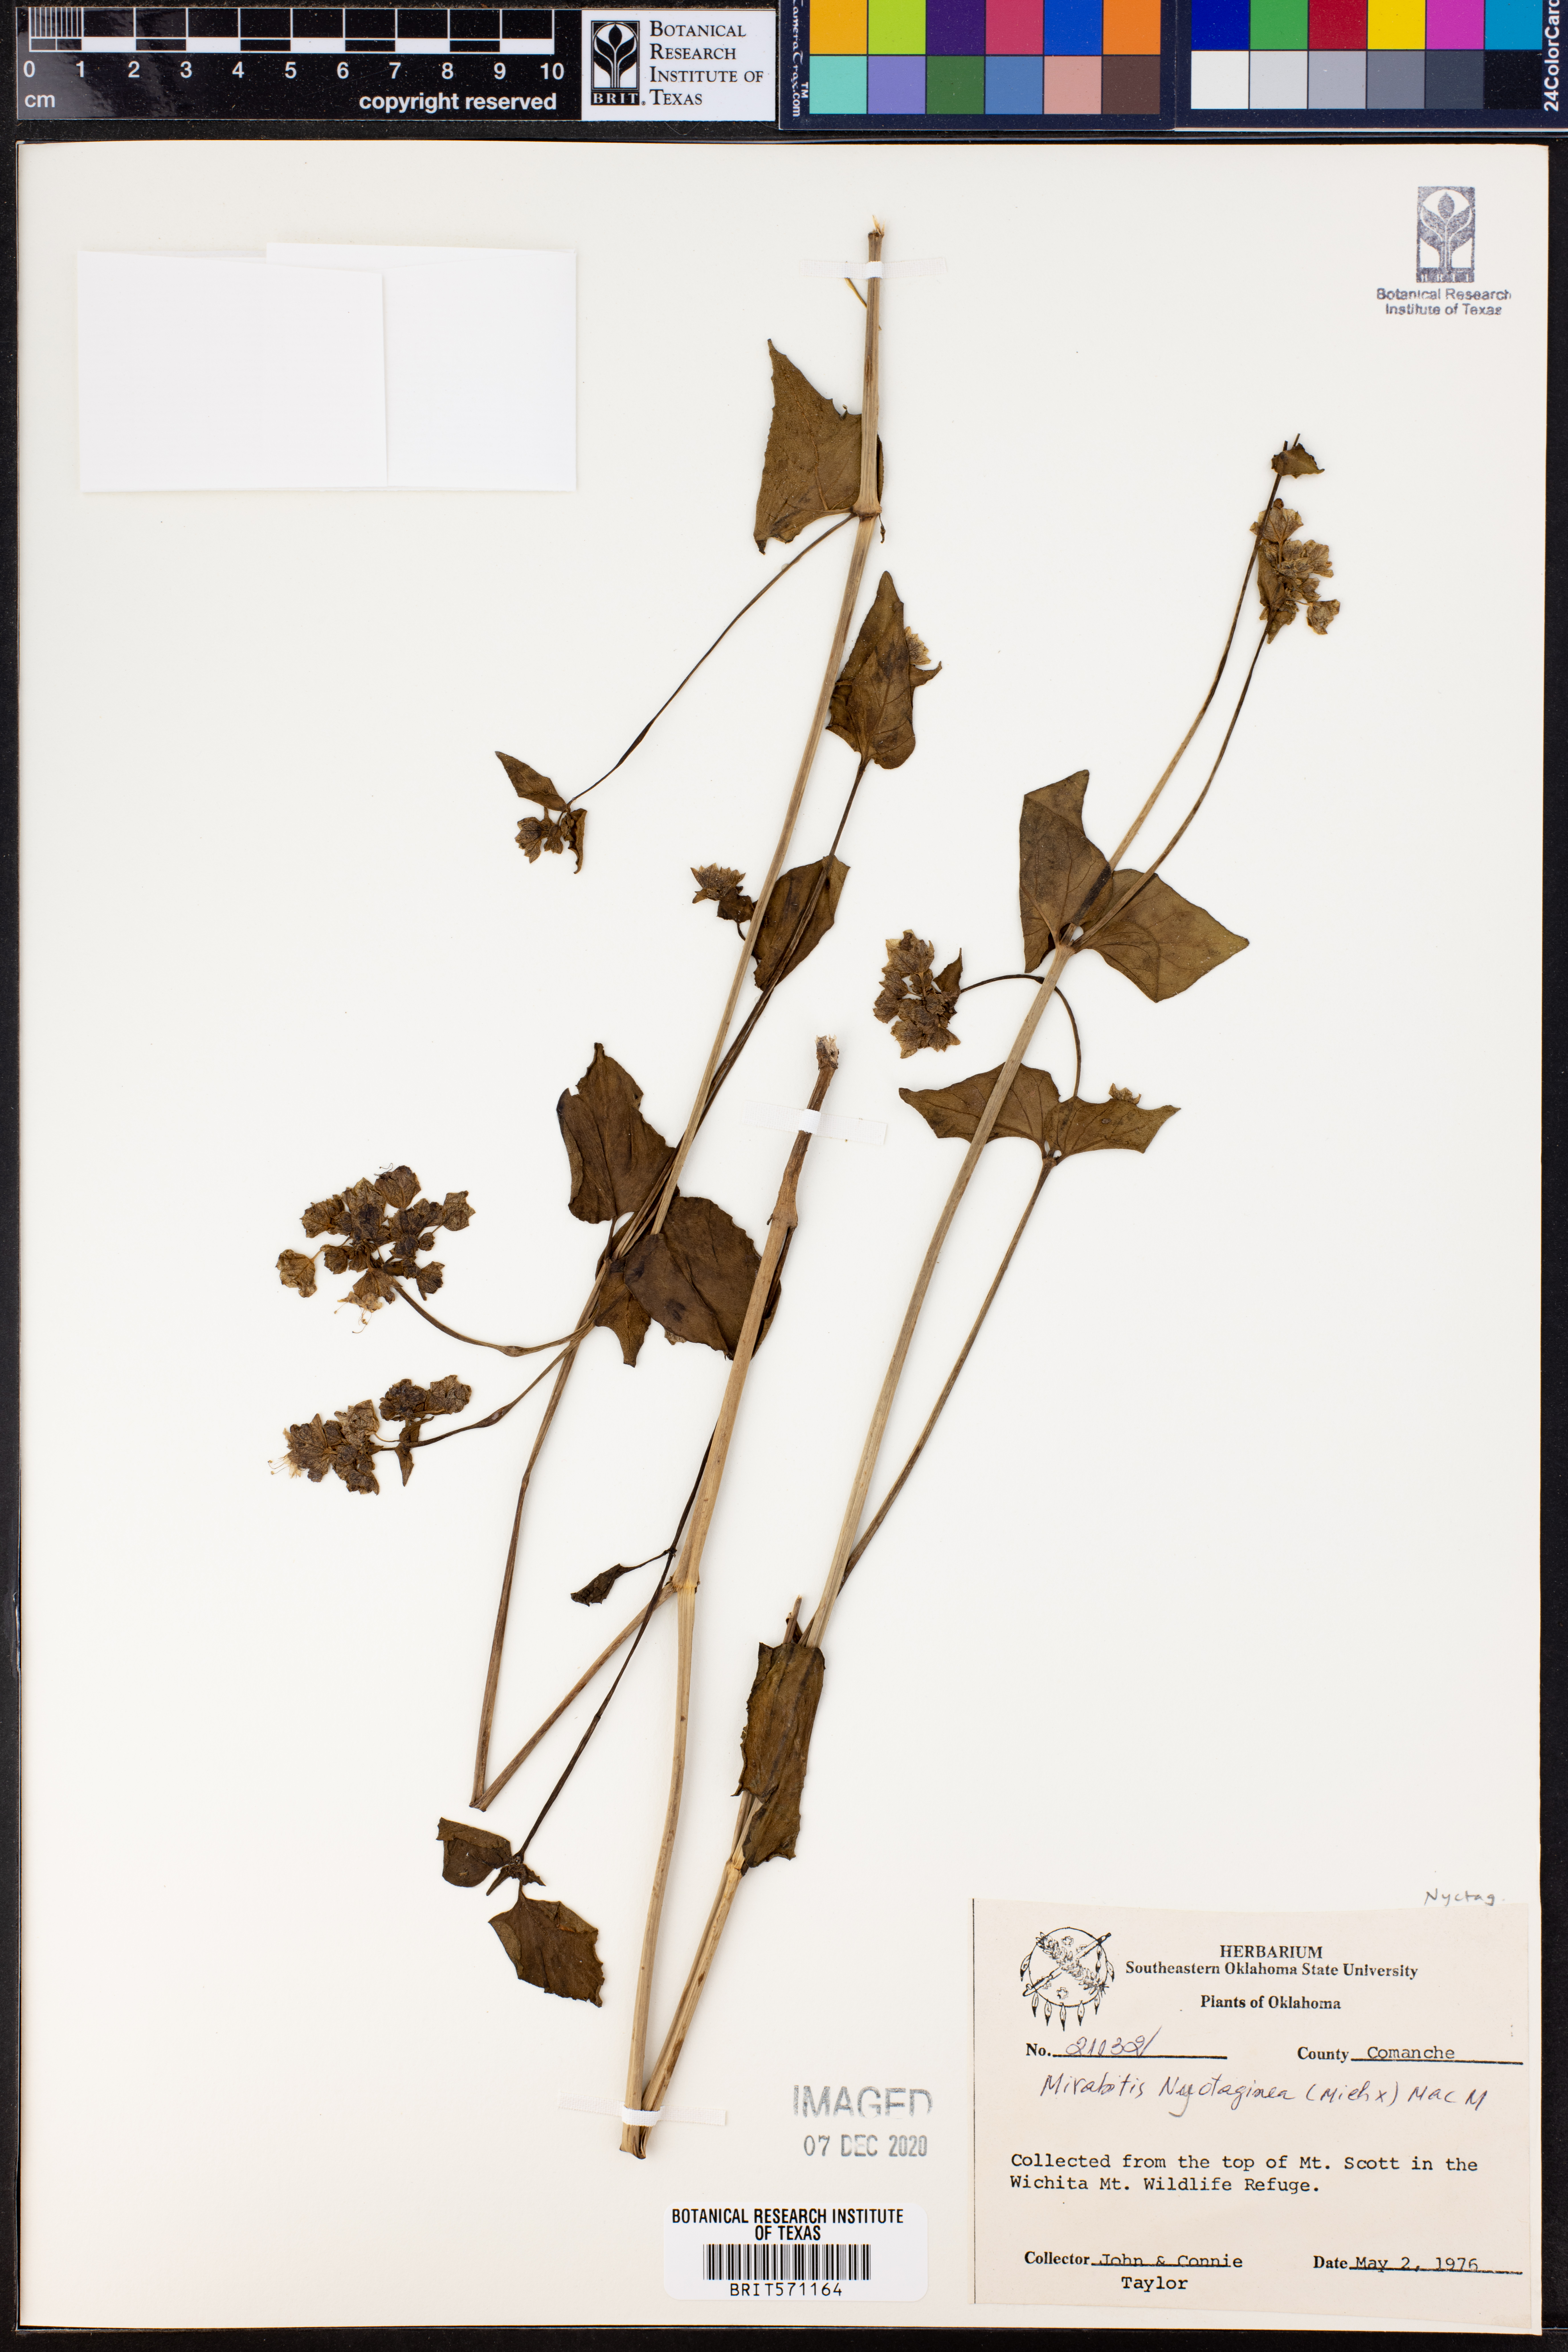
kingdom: Plantae
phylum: Tracheophyta
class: Magnoliopsida
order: Caryophyllales
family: Nyctaginaceae
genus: Mirabilis
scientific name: Mirabilis nyctaginea
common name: Umbrella wort
